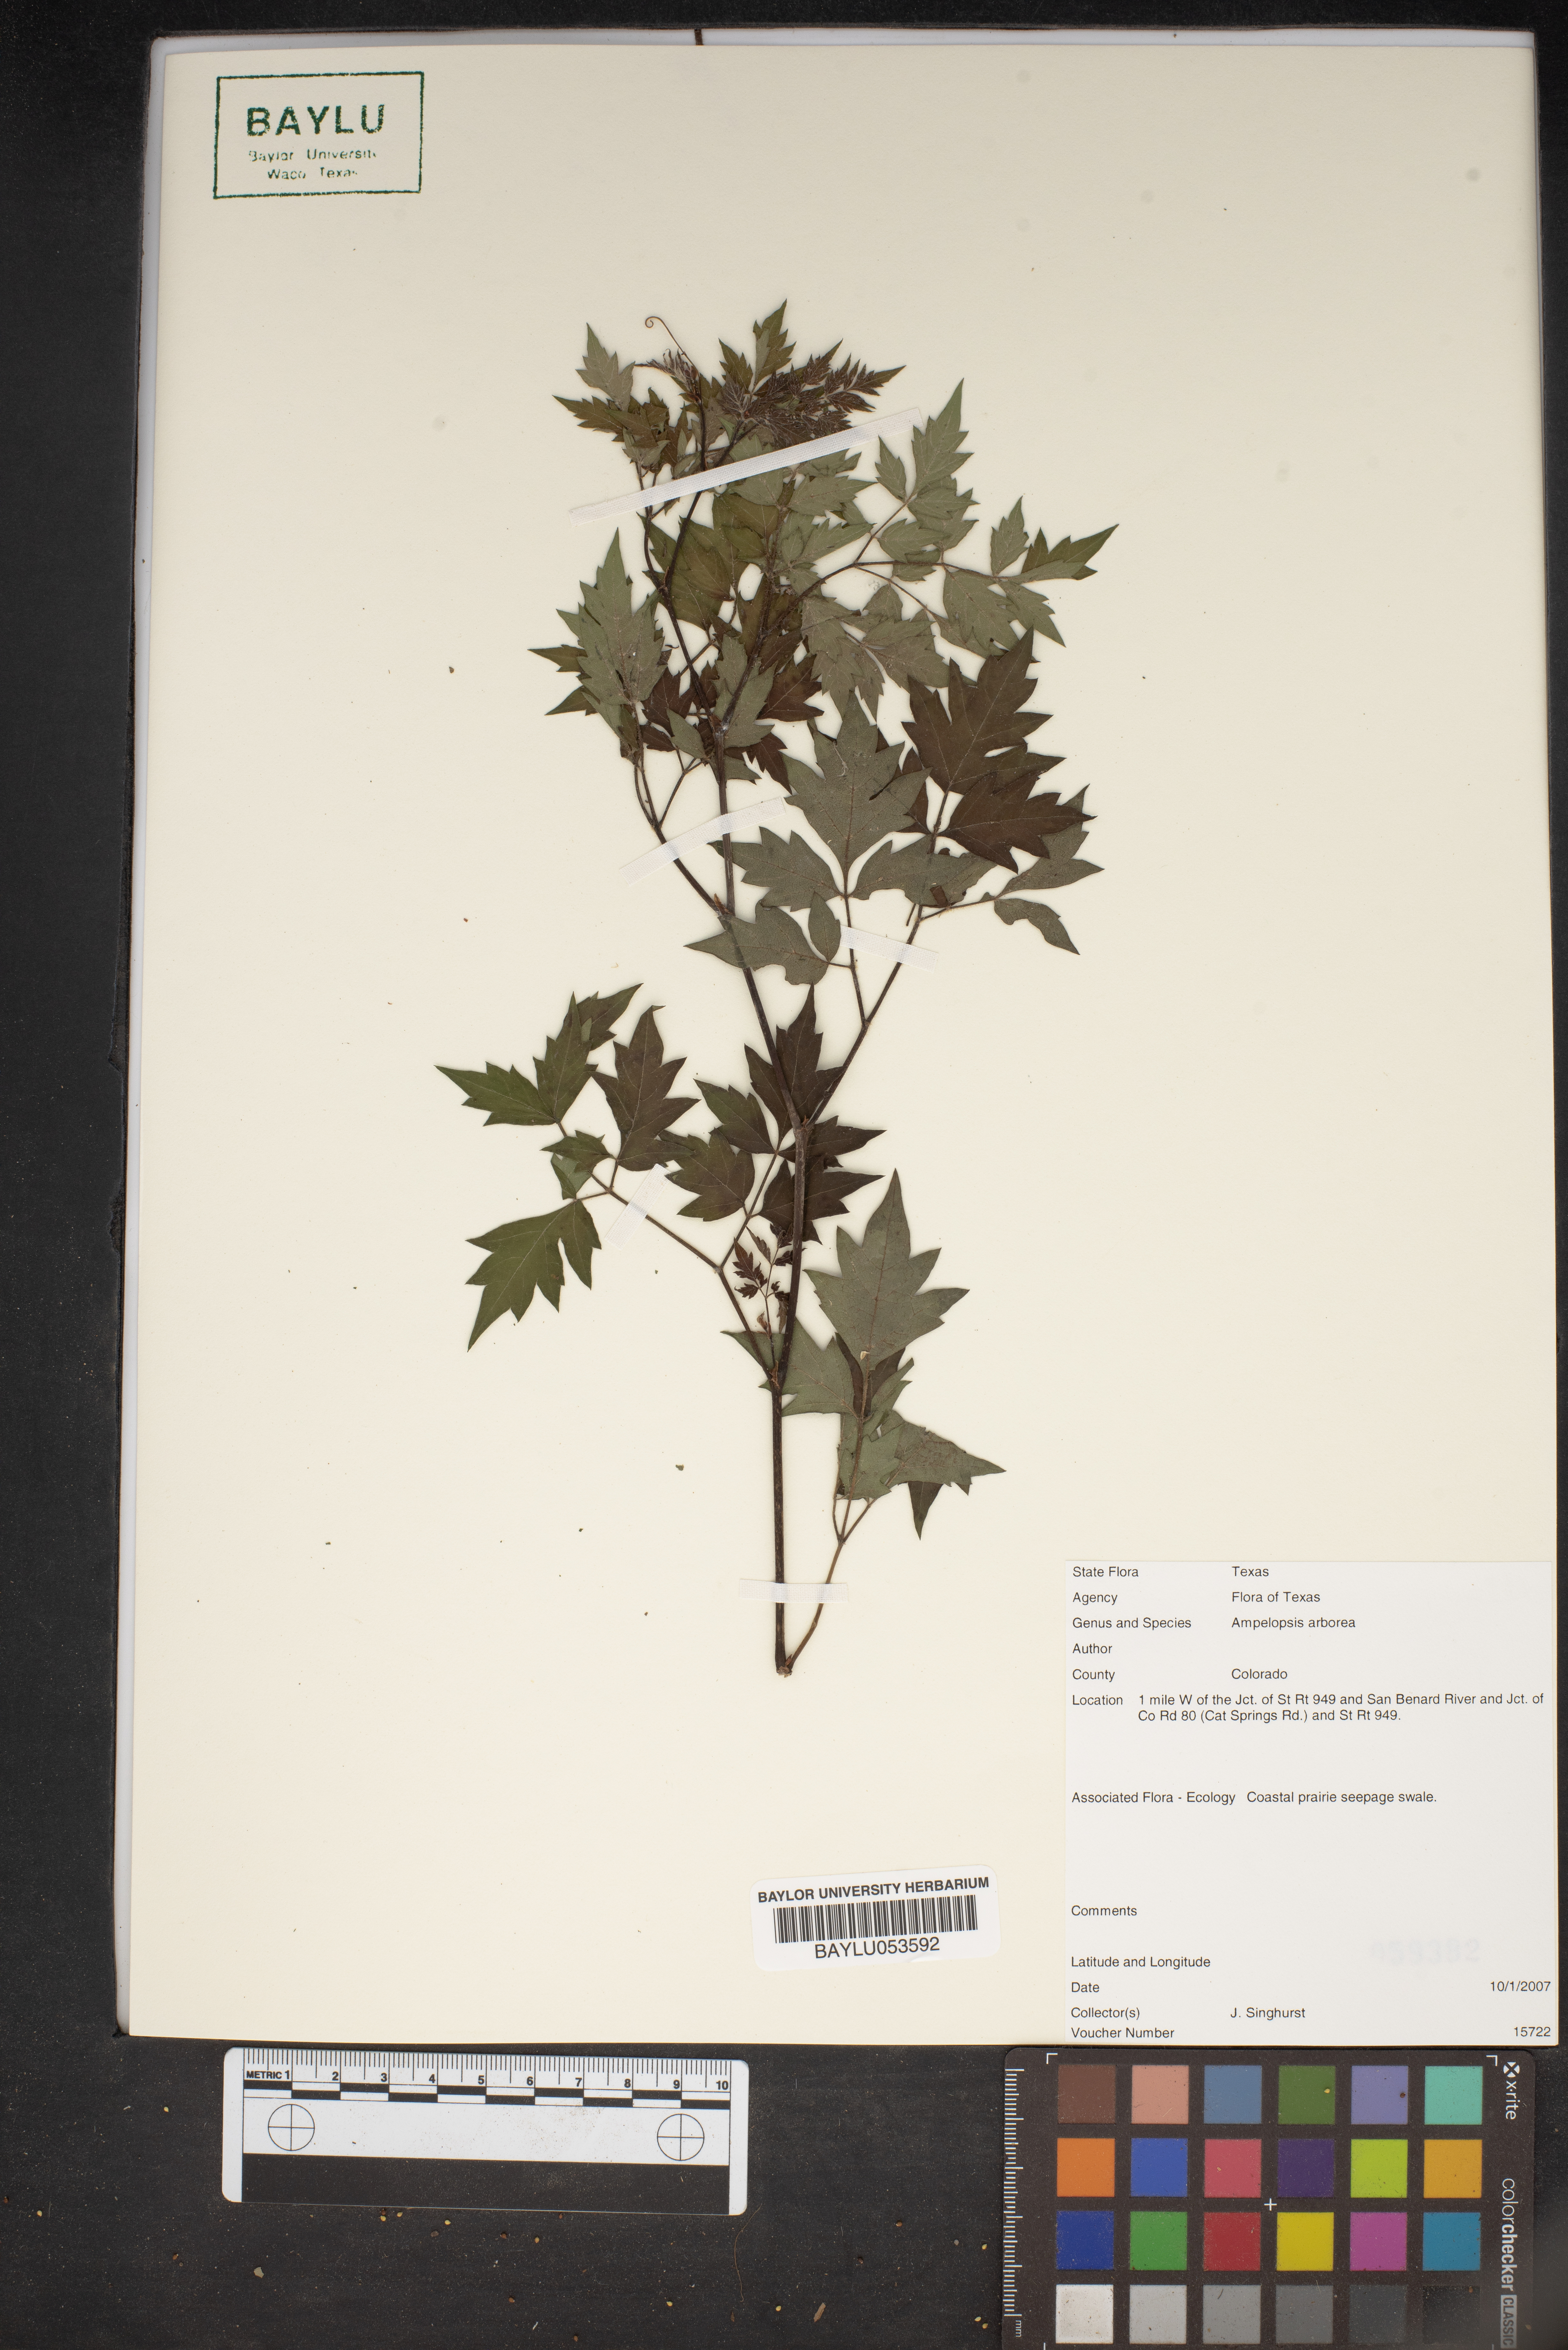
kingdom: Plantae
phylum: Tracheophyta
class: Magnoliopsida
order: Vitales
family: Vitaceae
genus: Nekemias
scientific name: Nekemias arborea
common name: Peppervine
